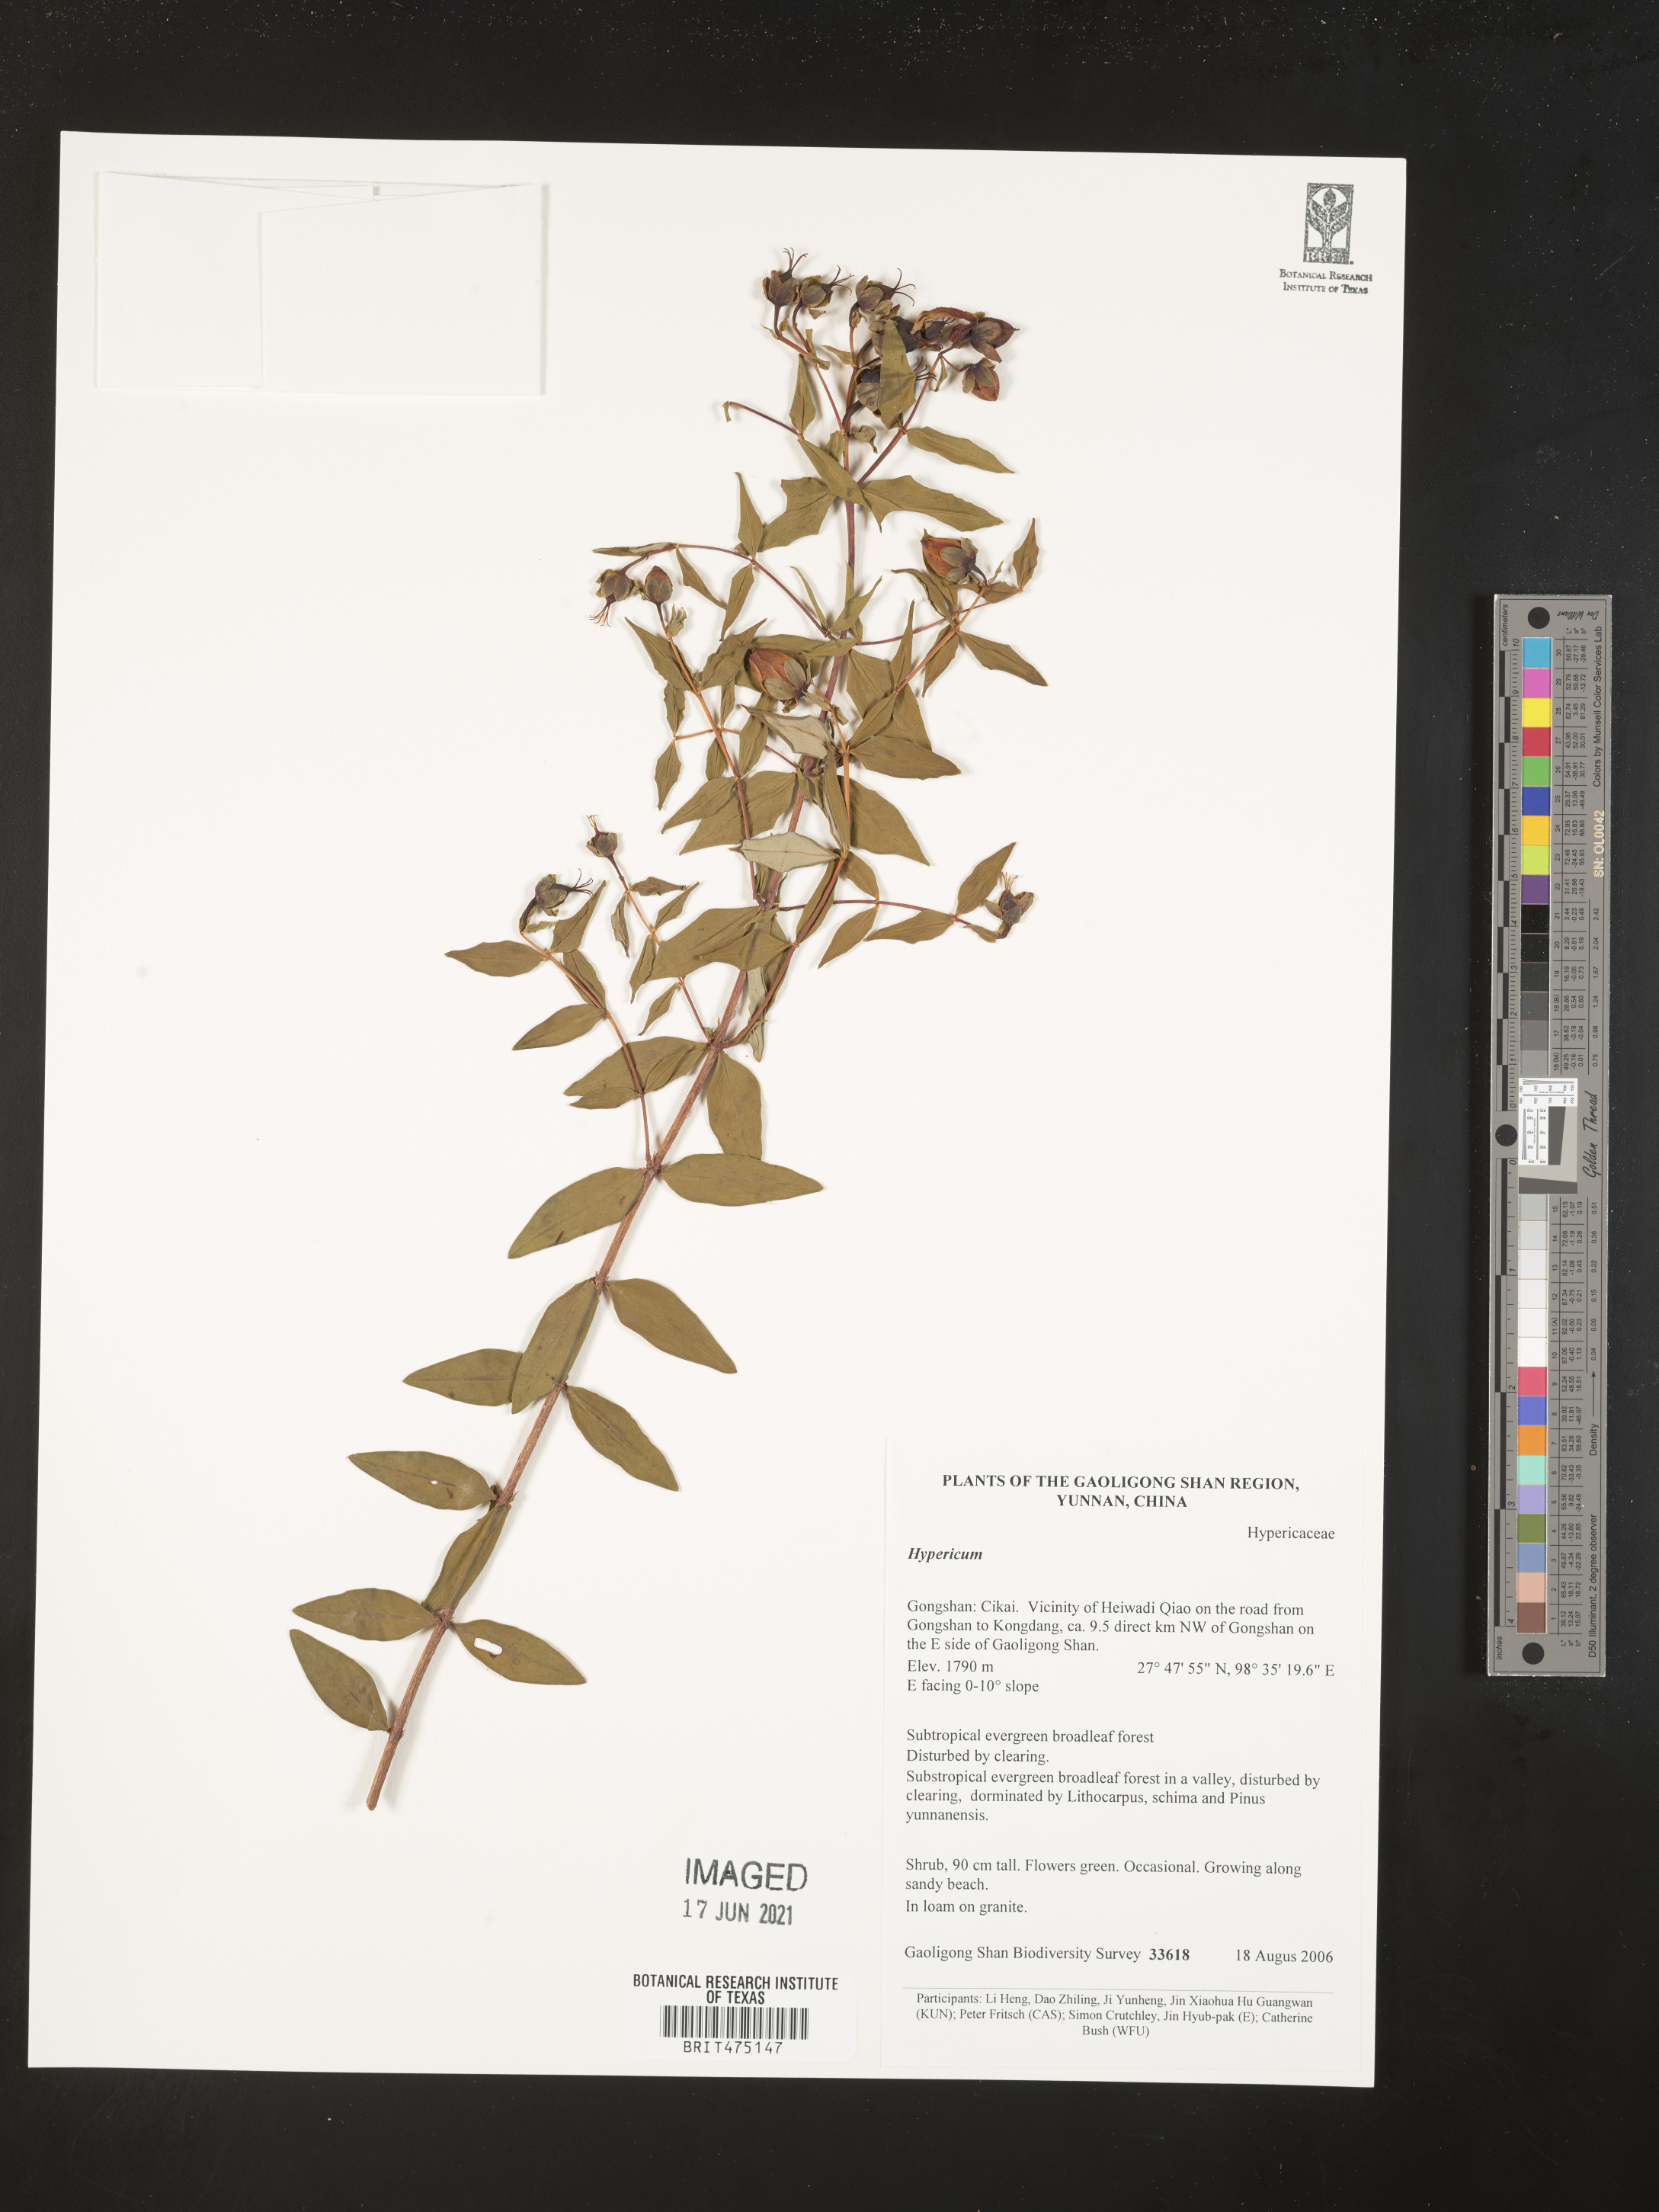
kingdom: Plantae
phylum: Tracheophyta
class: Magnoliopsida
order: Malpighiales
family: Hypericaceae
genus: Hypericum
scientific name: Hypericum
